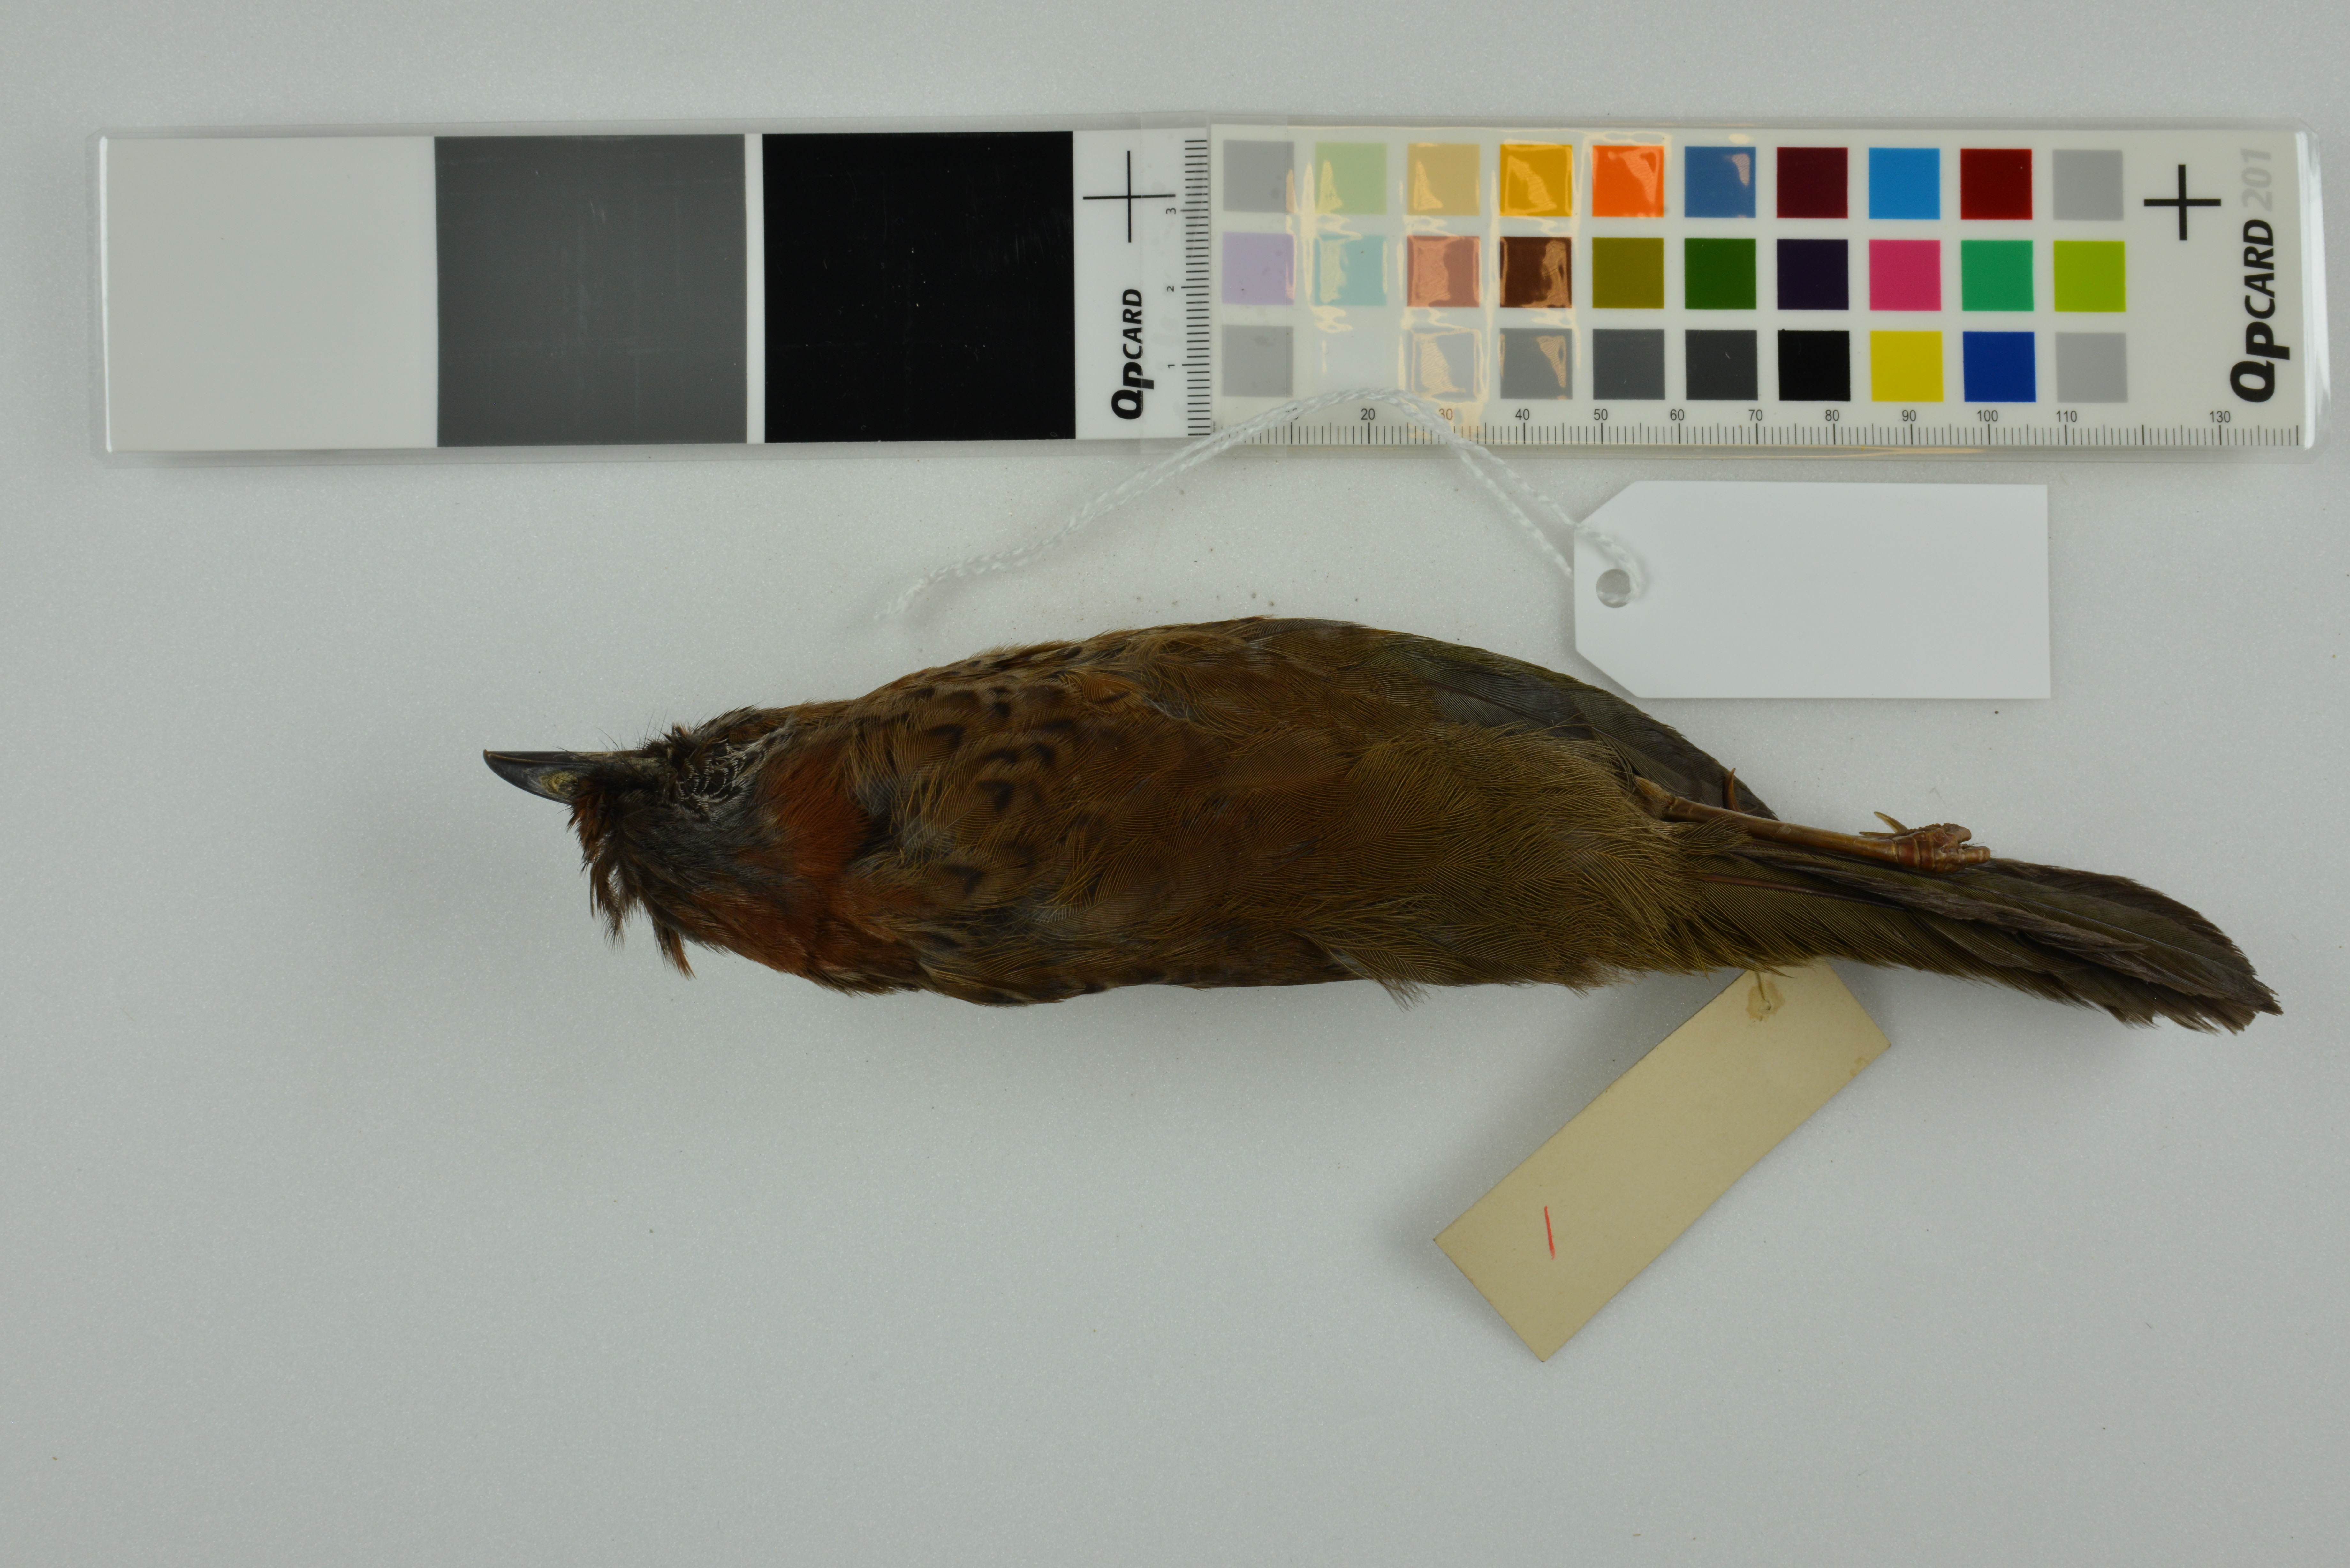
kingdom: Animalia
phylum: Chordata
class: Aves
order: Passeriformes
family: Leiothrichidae
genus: Trochalopteron
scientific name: Trochalopteron erythrocephalum
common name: Chestnut-crowned laughingthrush
